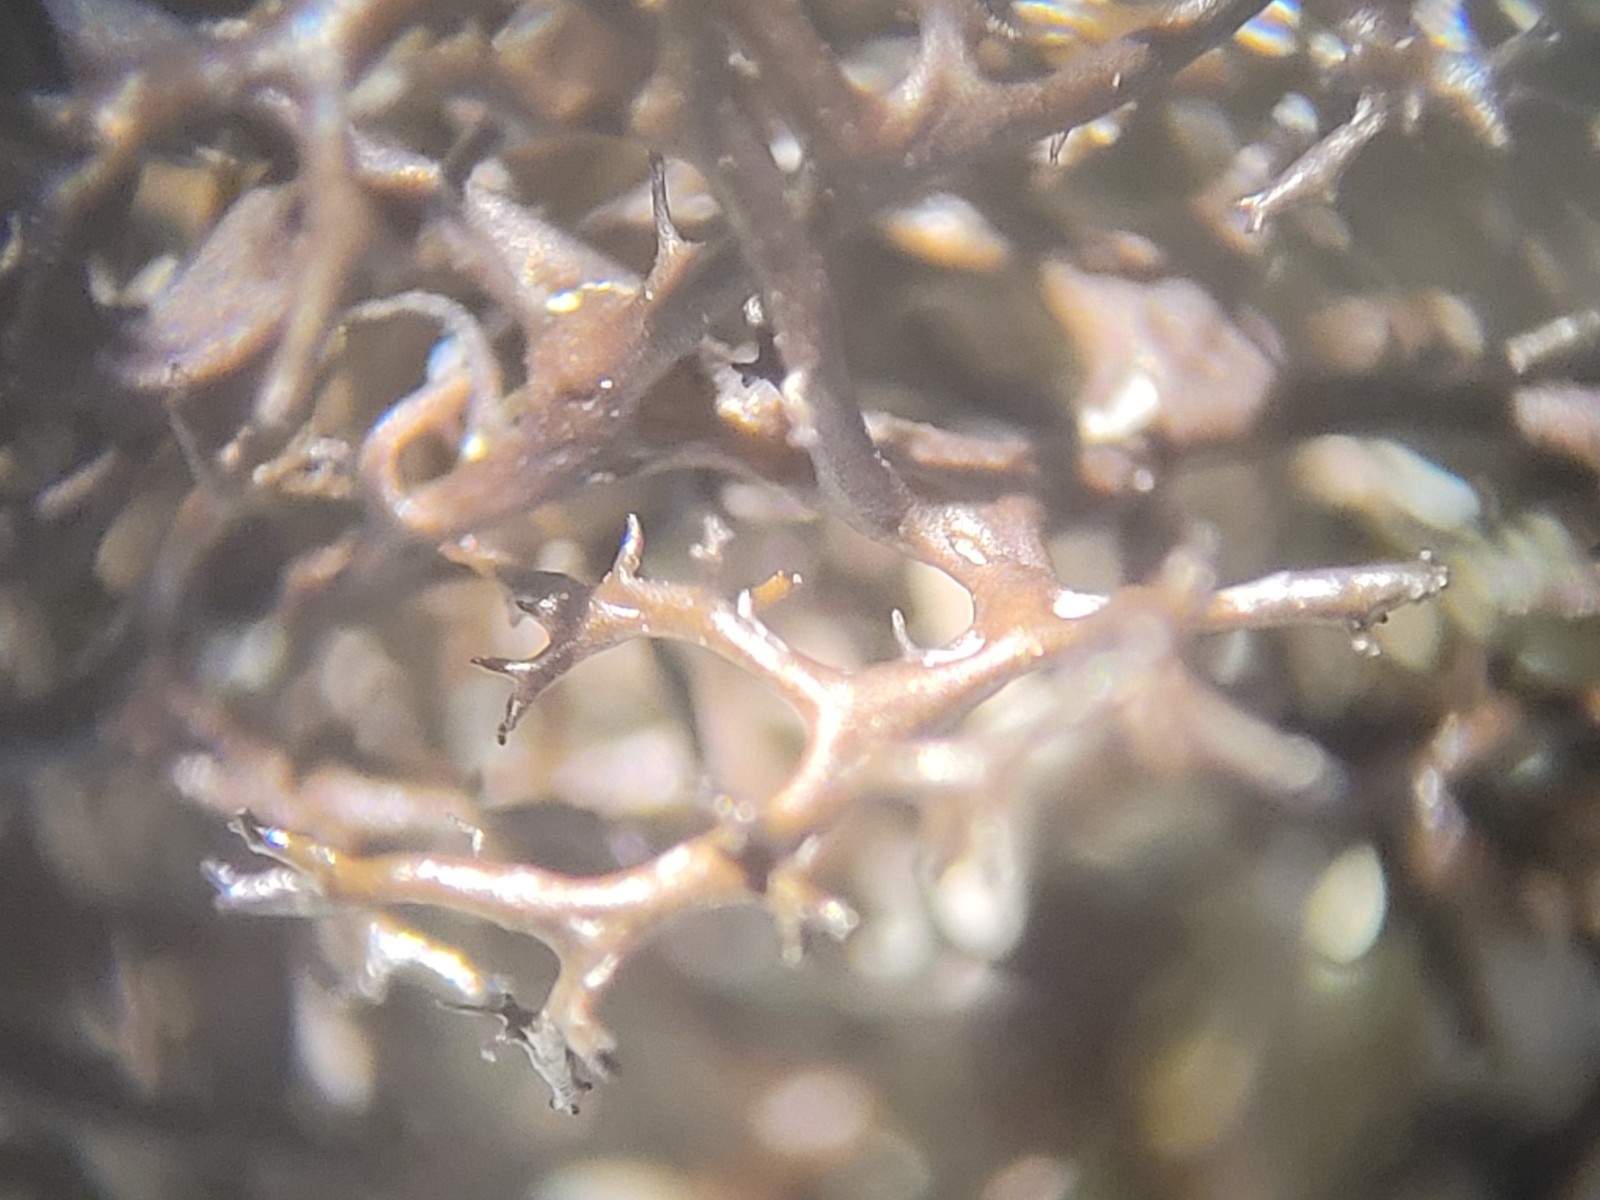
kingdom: Fungi
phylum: Ascomycota
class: Lecanoromycetes
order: Lecanorales
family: Parmeliaceae
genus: Cetraria
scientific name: Cetraria aculeata
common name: grubet tjørnelav
